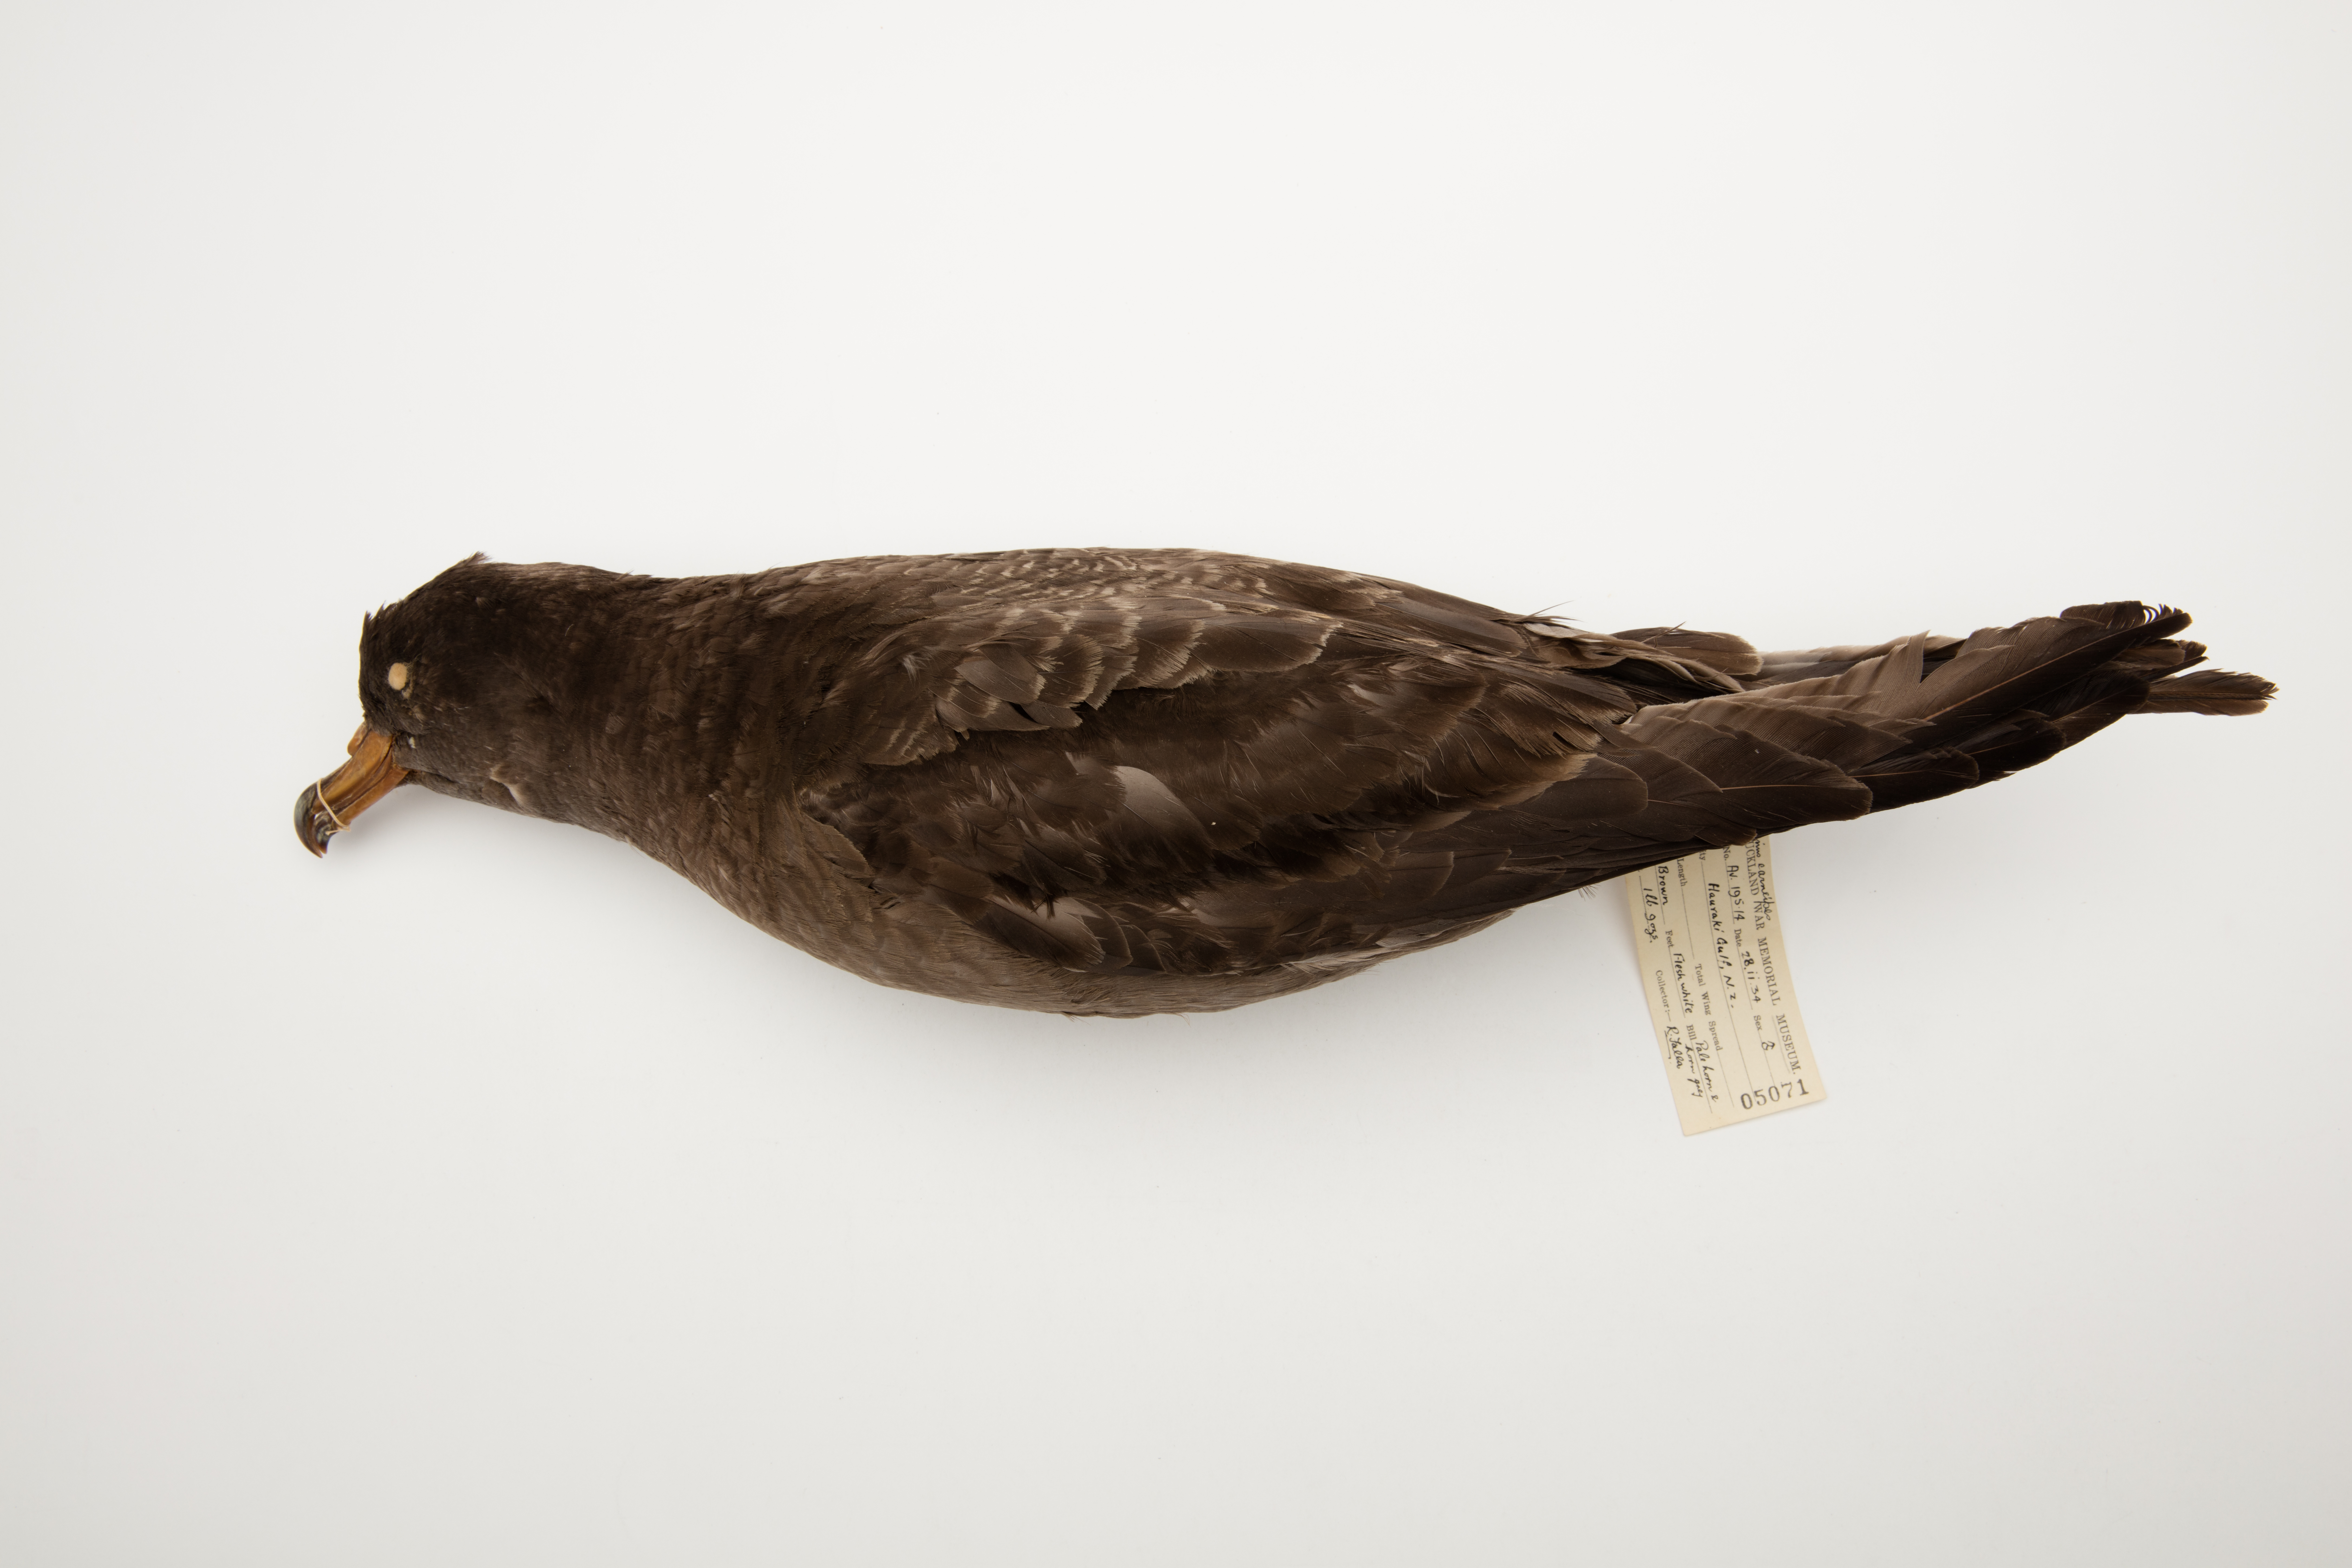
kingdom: Animalia
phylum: Chordata
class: Aves
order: Procellariiformes
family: Procellariidae
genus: Puffinus
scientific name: Puffinus carneipes
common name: Flesh-footed shearwater
